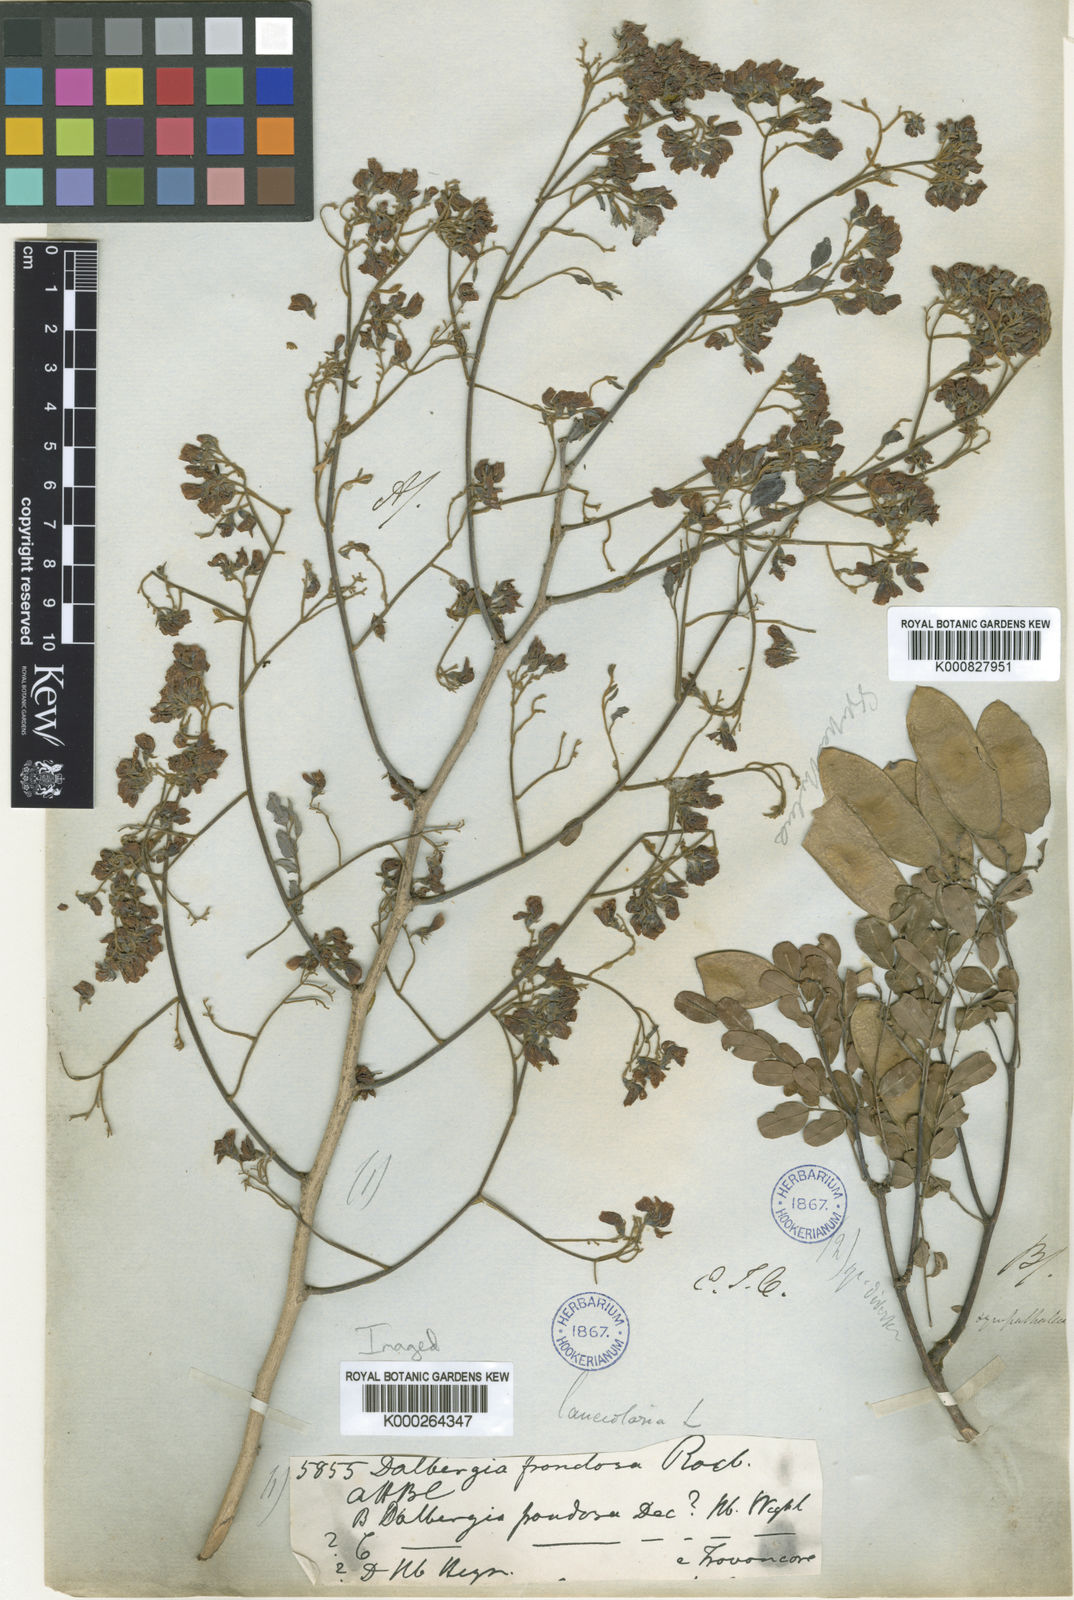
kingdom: Plantae
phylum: Tracheophyta
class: Magnoliopsida
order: Fabales
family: Fabaceae
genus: Dalbergia
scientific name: Dalbergia lanceolaria
